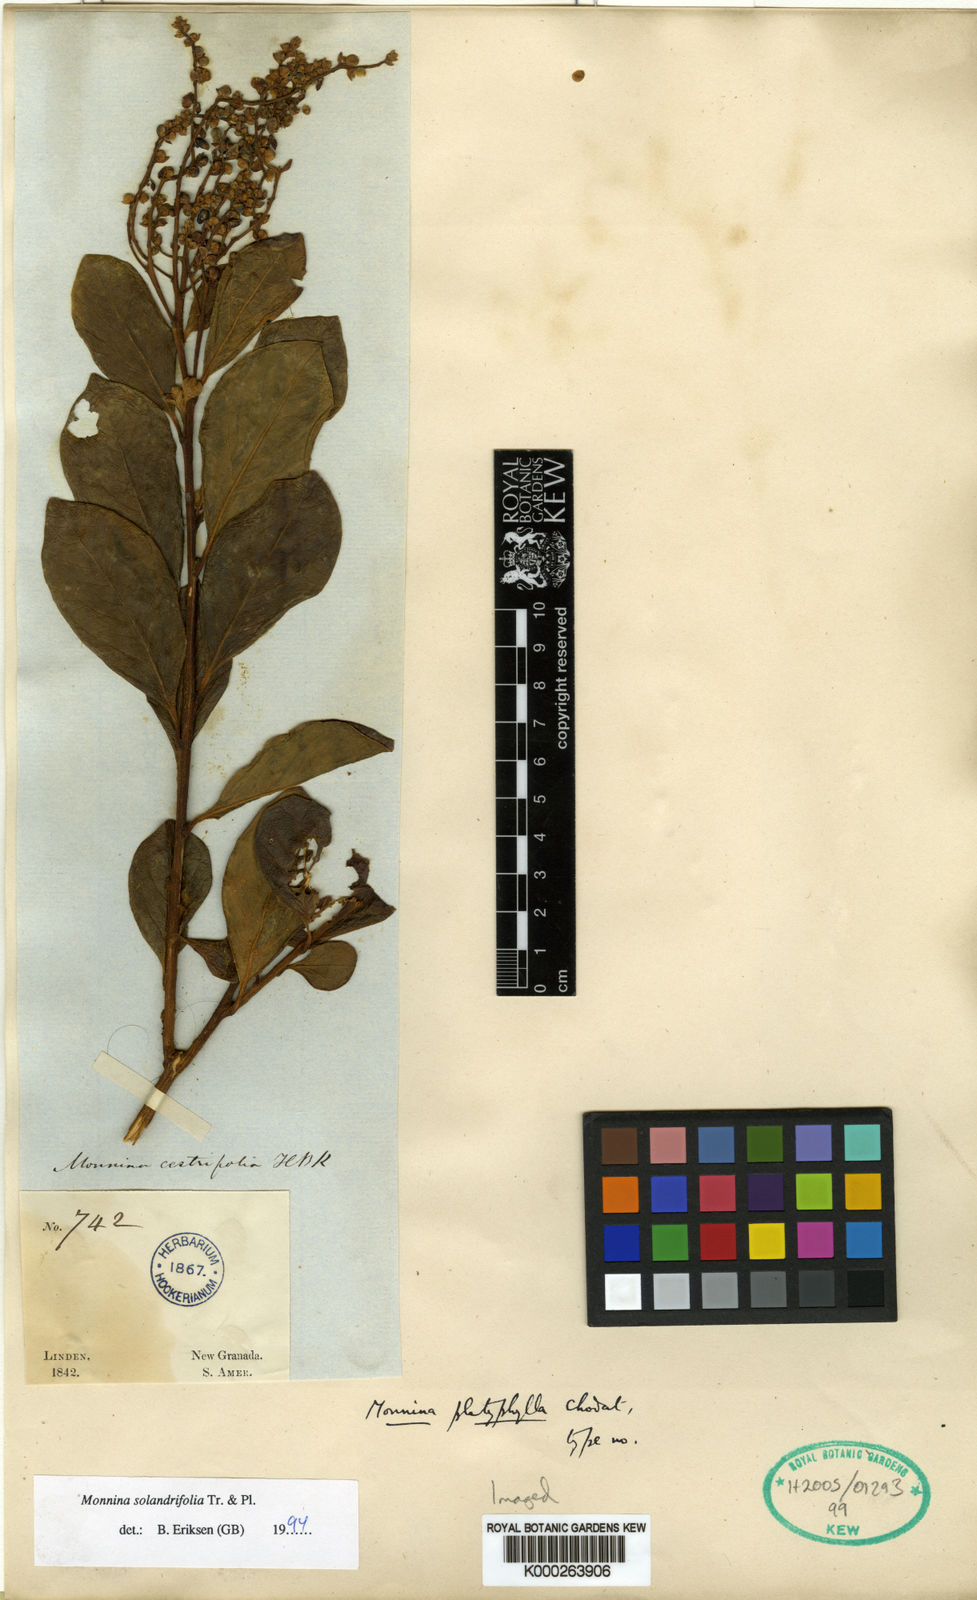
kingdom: Plantae
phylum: Tracheophyta
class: Magnoliopsida
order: Fabales
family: Polygalaceae
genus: Monnina
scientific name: Monnina solandrifolia
